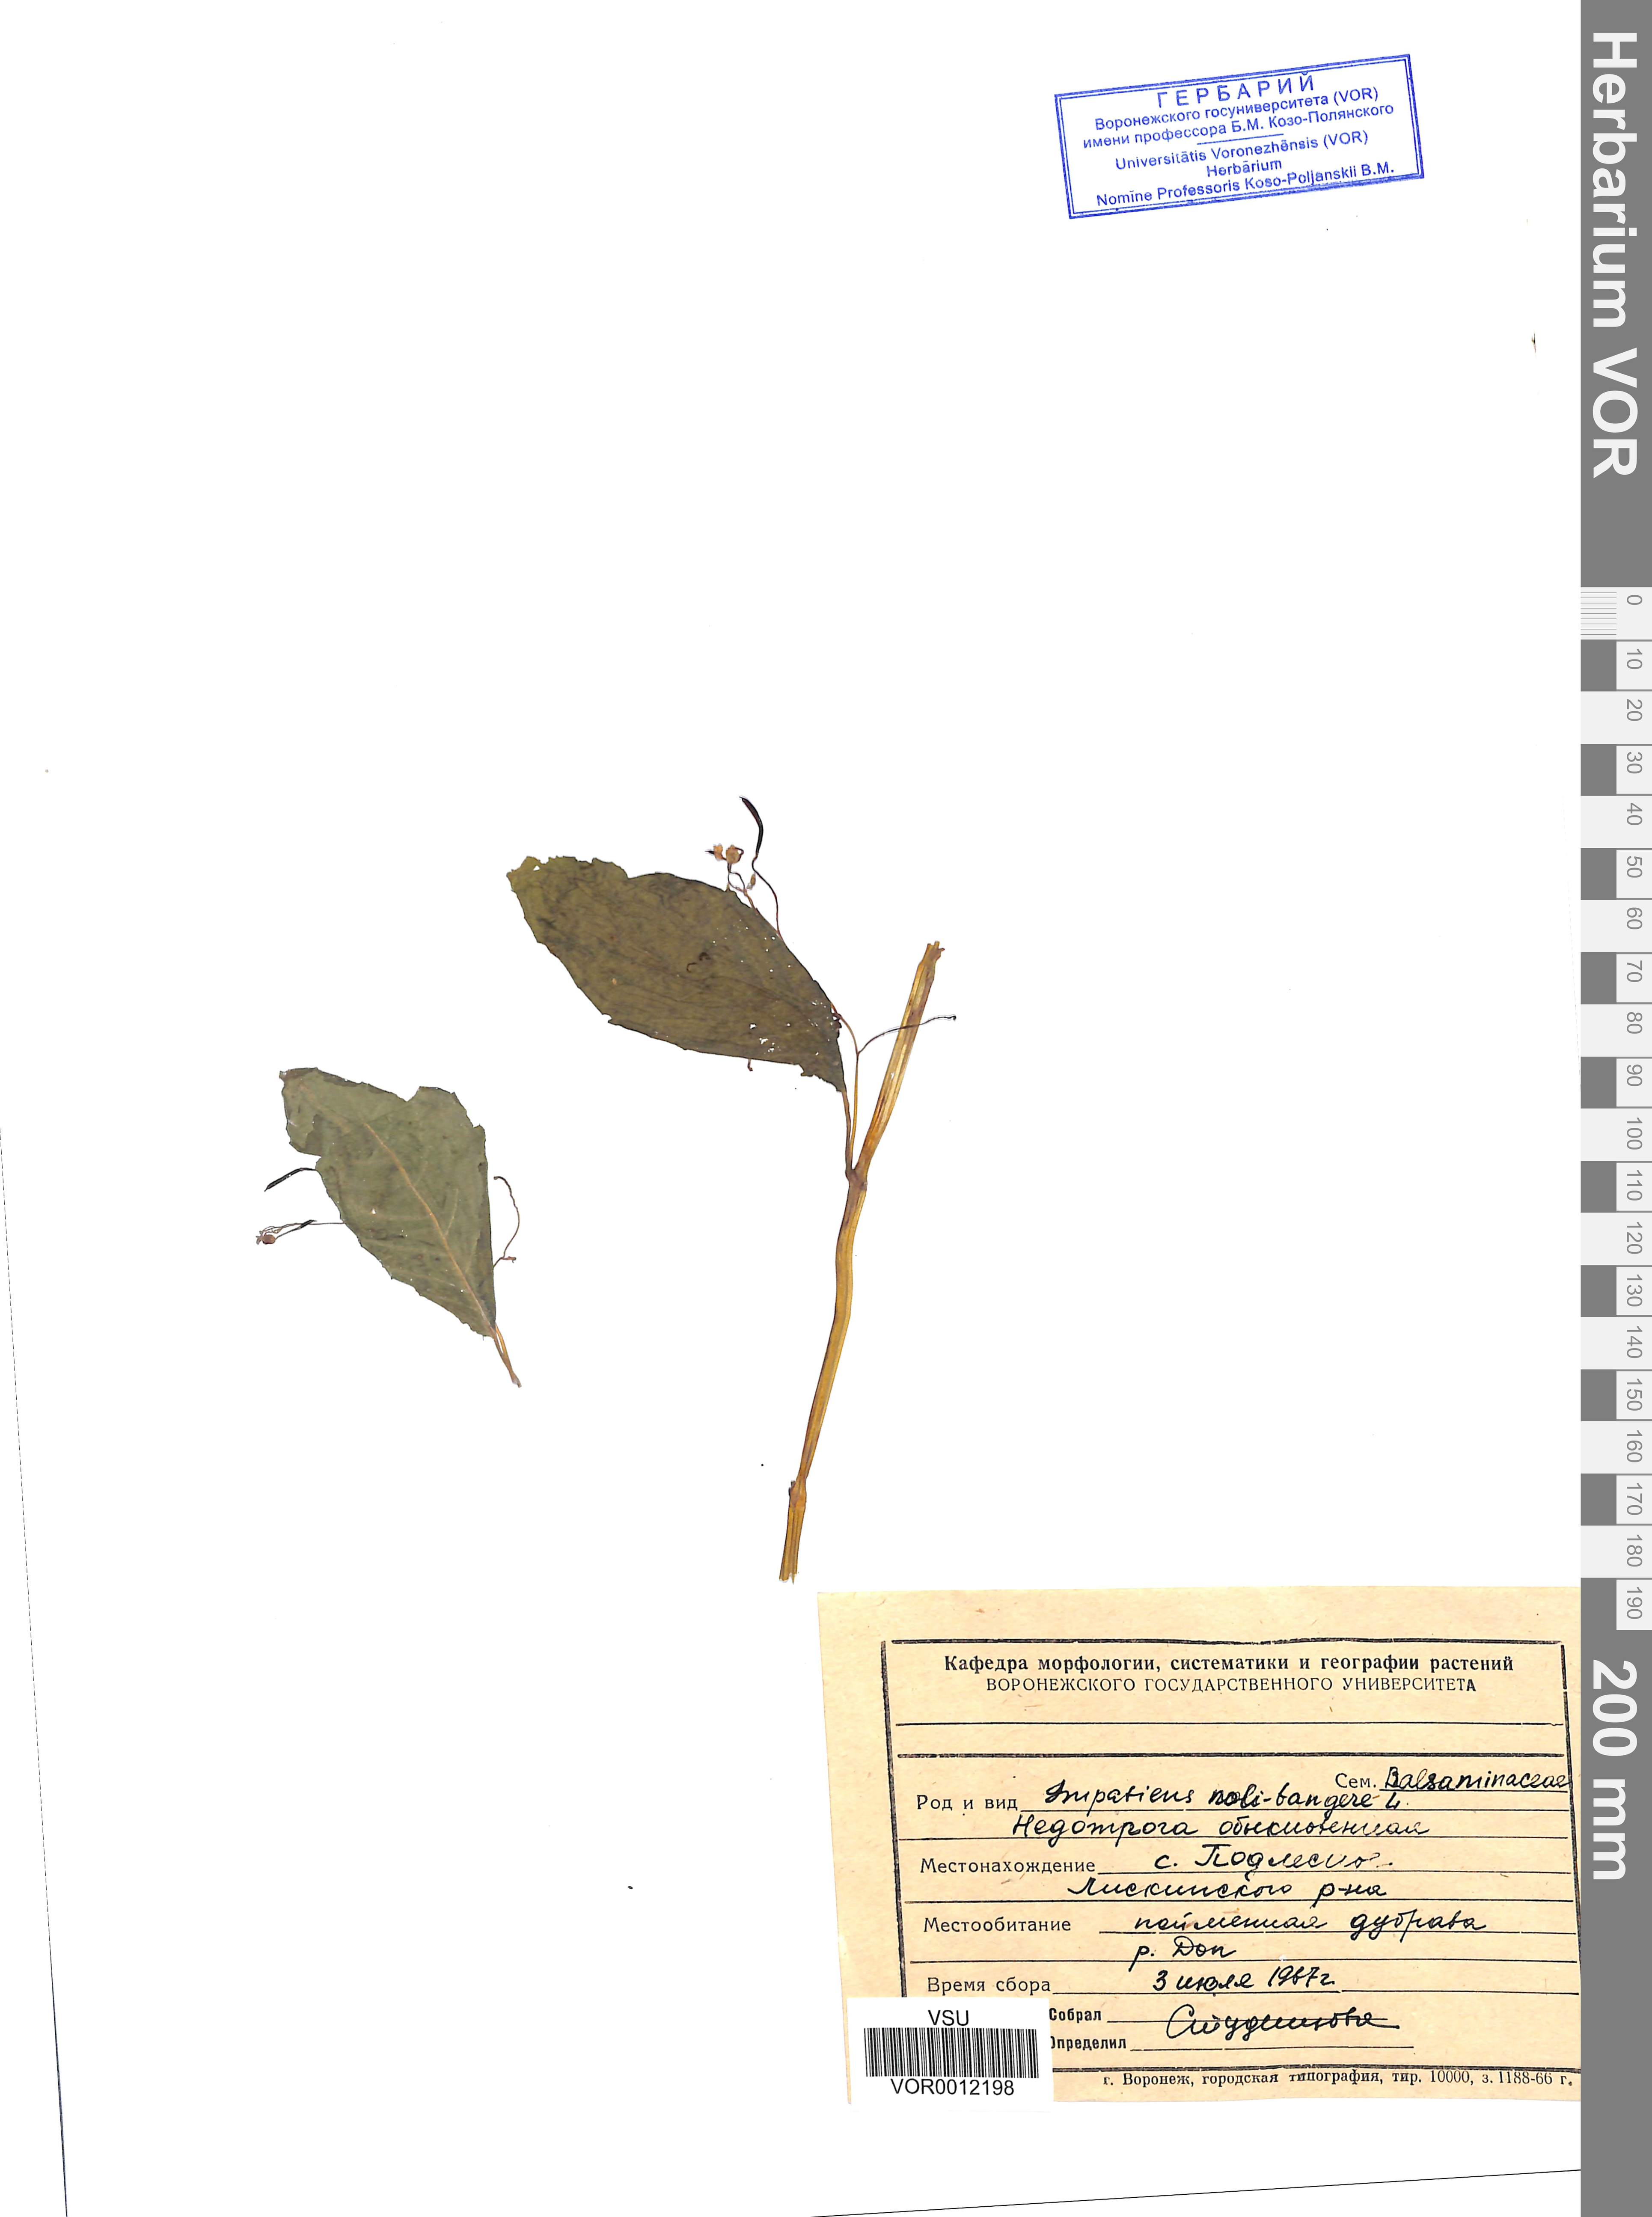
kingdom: Plantae
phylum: Tracheophyta
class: Magnoliopsida
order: Ericales
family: Balsaminaceae
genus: Impatiens
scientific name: Impatiens noli-tangere
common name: Touch-me-not balsam
